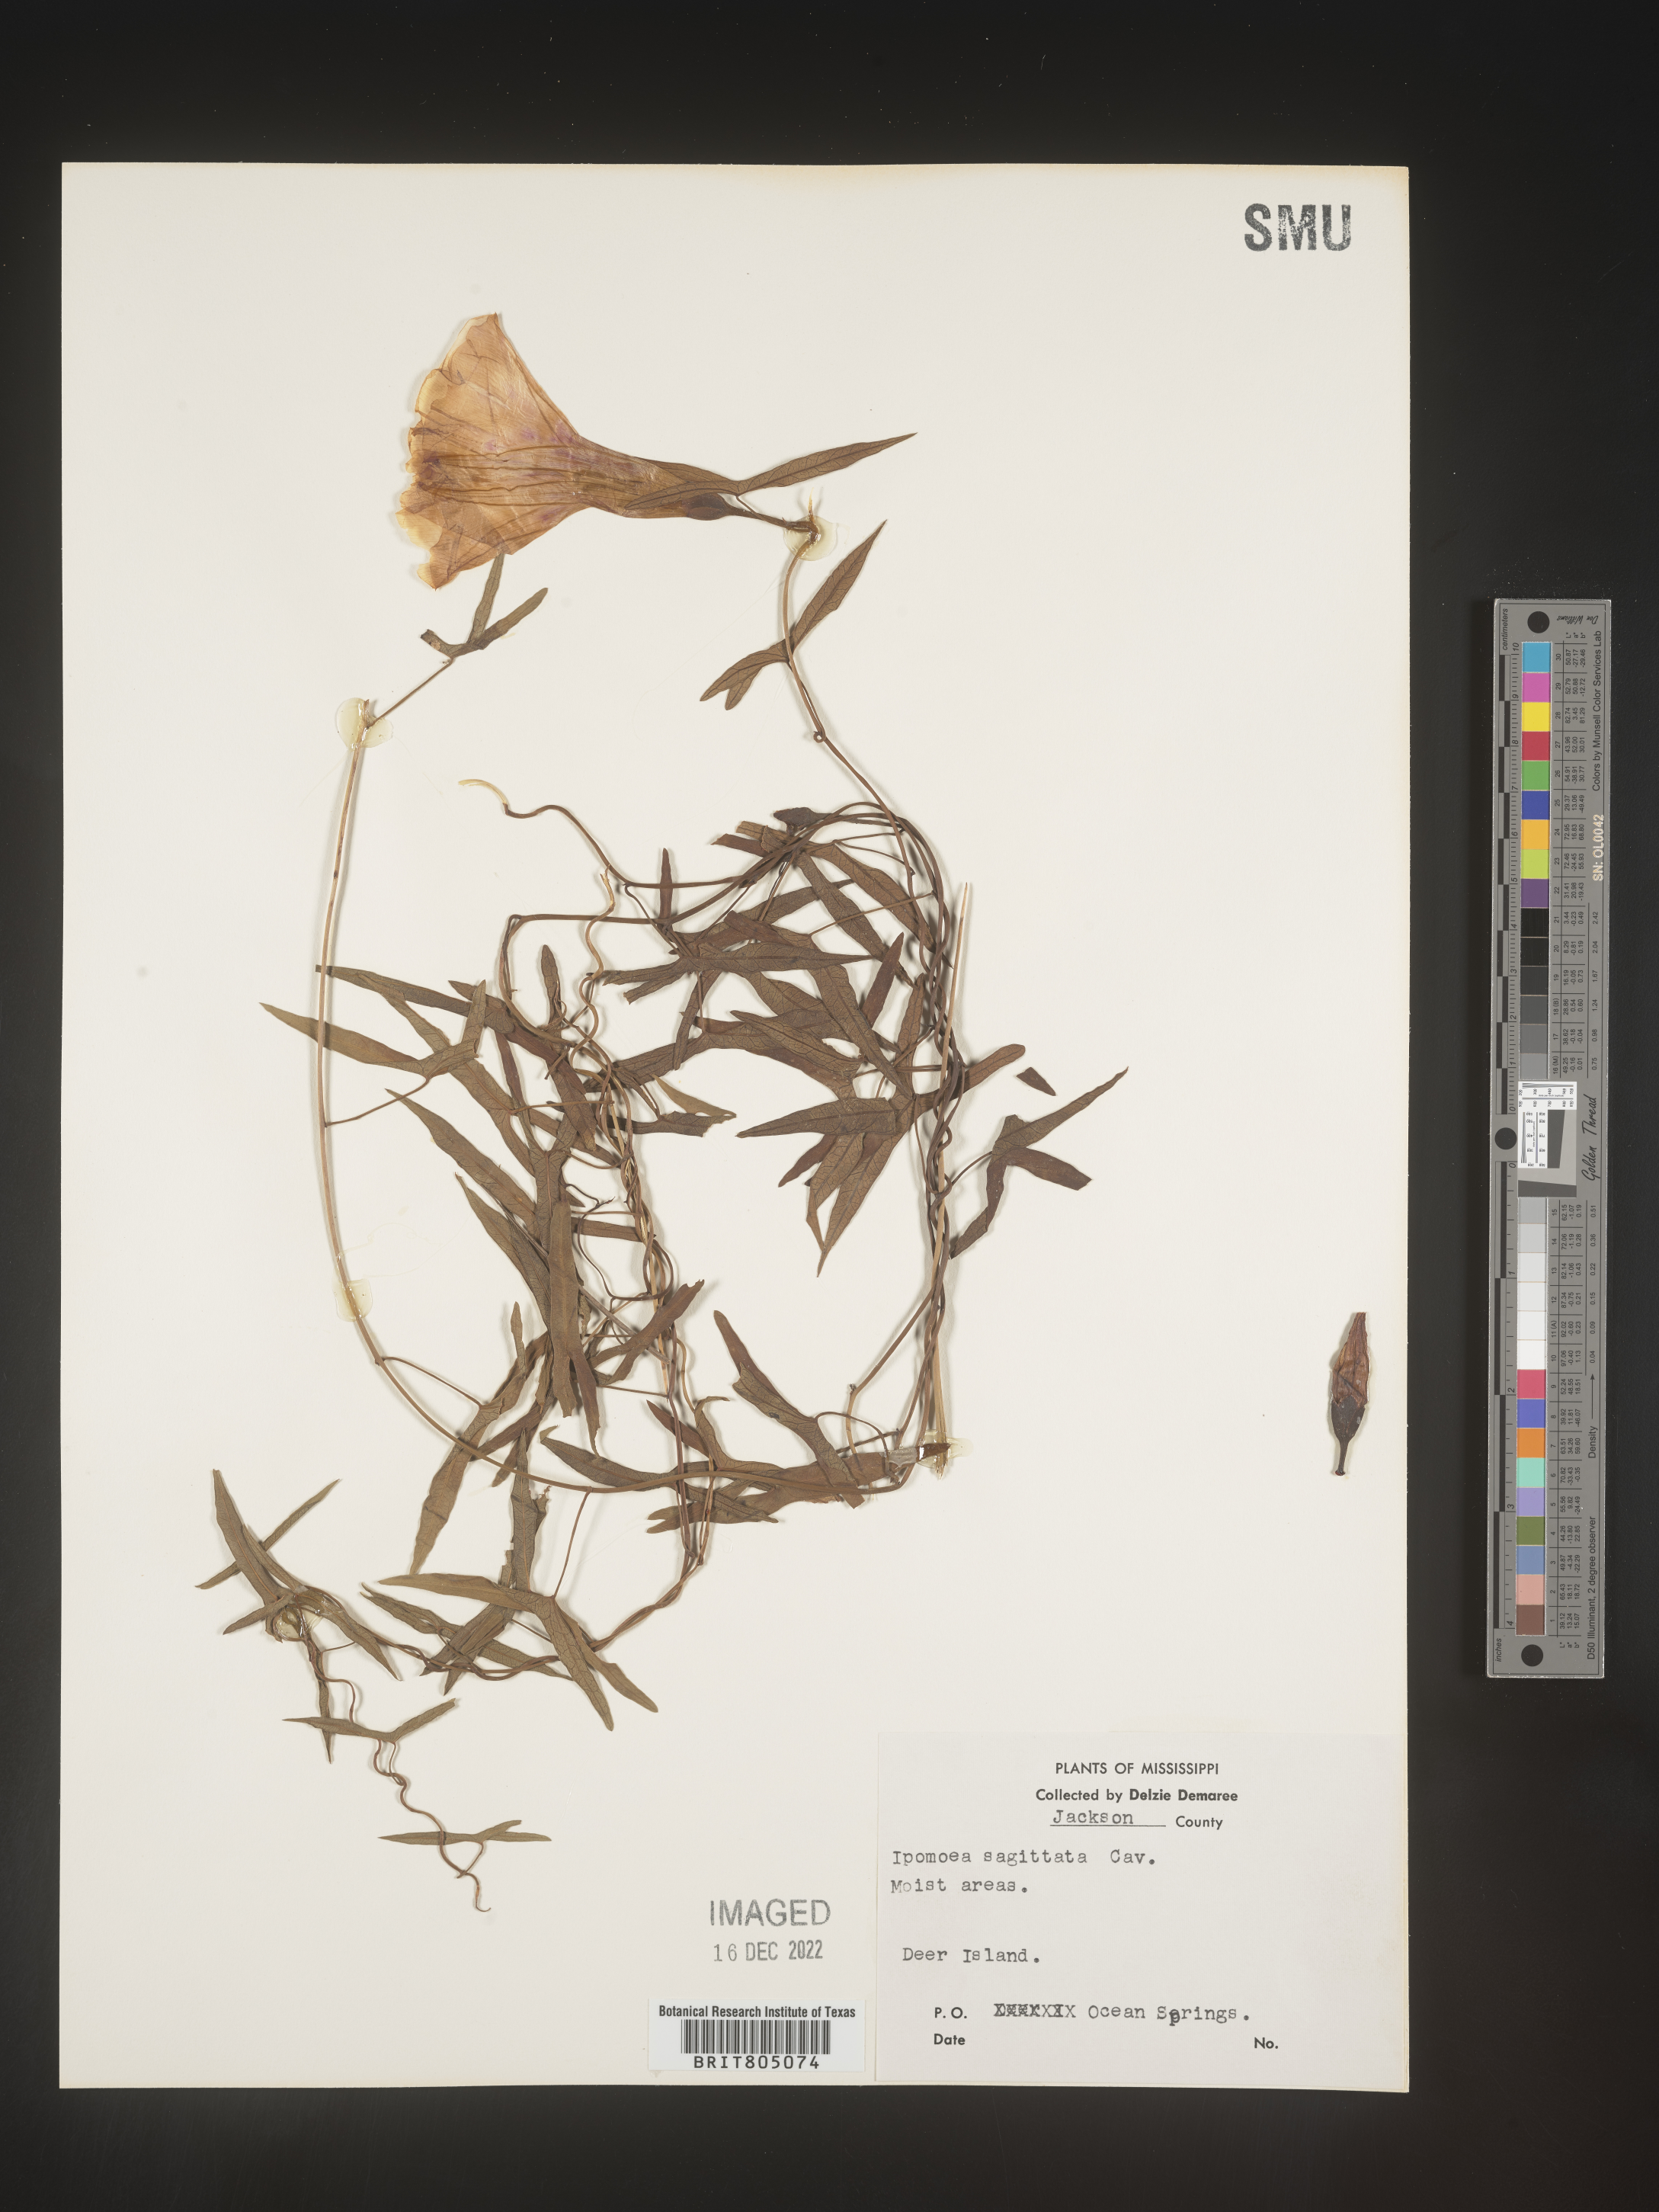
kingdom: Plantae
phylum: Tracheophyta
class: Magnoliopsida
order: Solanales
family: Convolvulaceae
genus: Ipomoea
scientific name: Ipomoea sinensis
